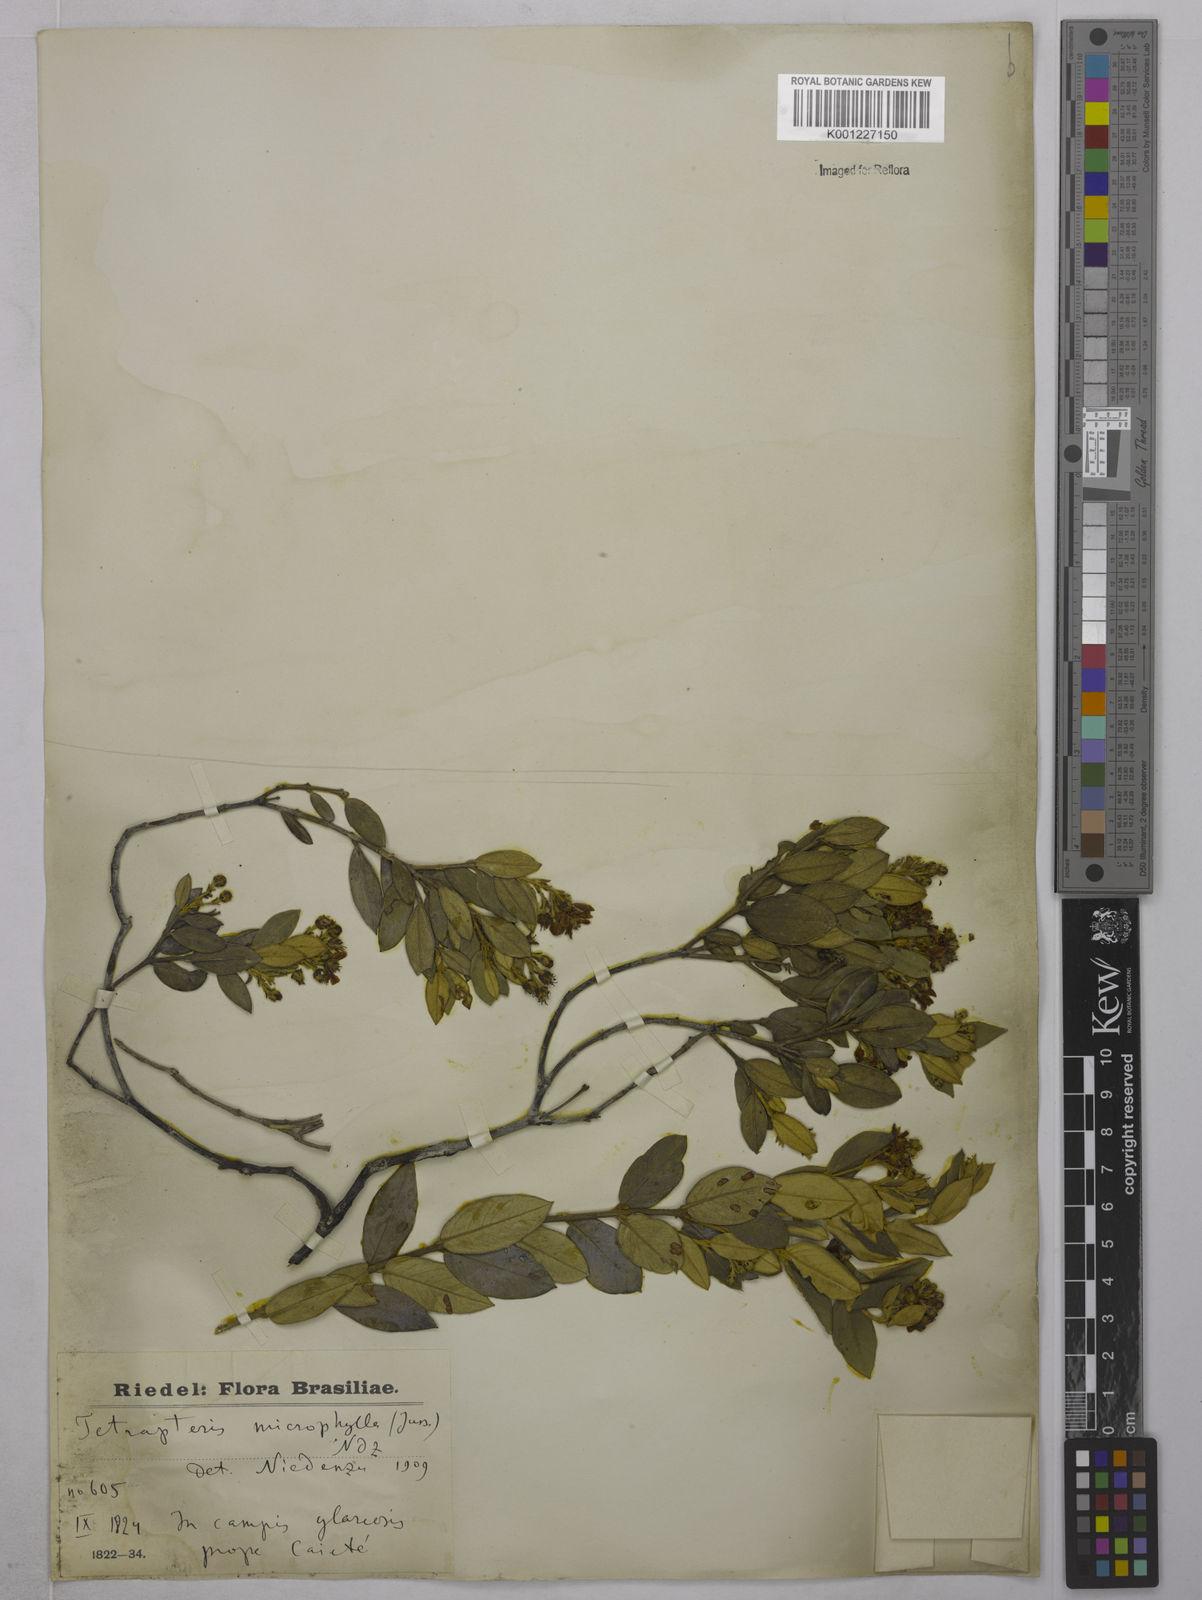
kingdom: Plantae
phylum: Tracheophyta
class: Magnoliopsida
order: Malpighiales
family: Malpighiaceae
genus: Glicophyllum
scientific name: Glicophyllum microphyllum
